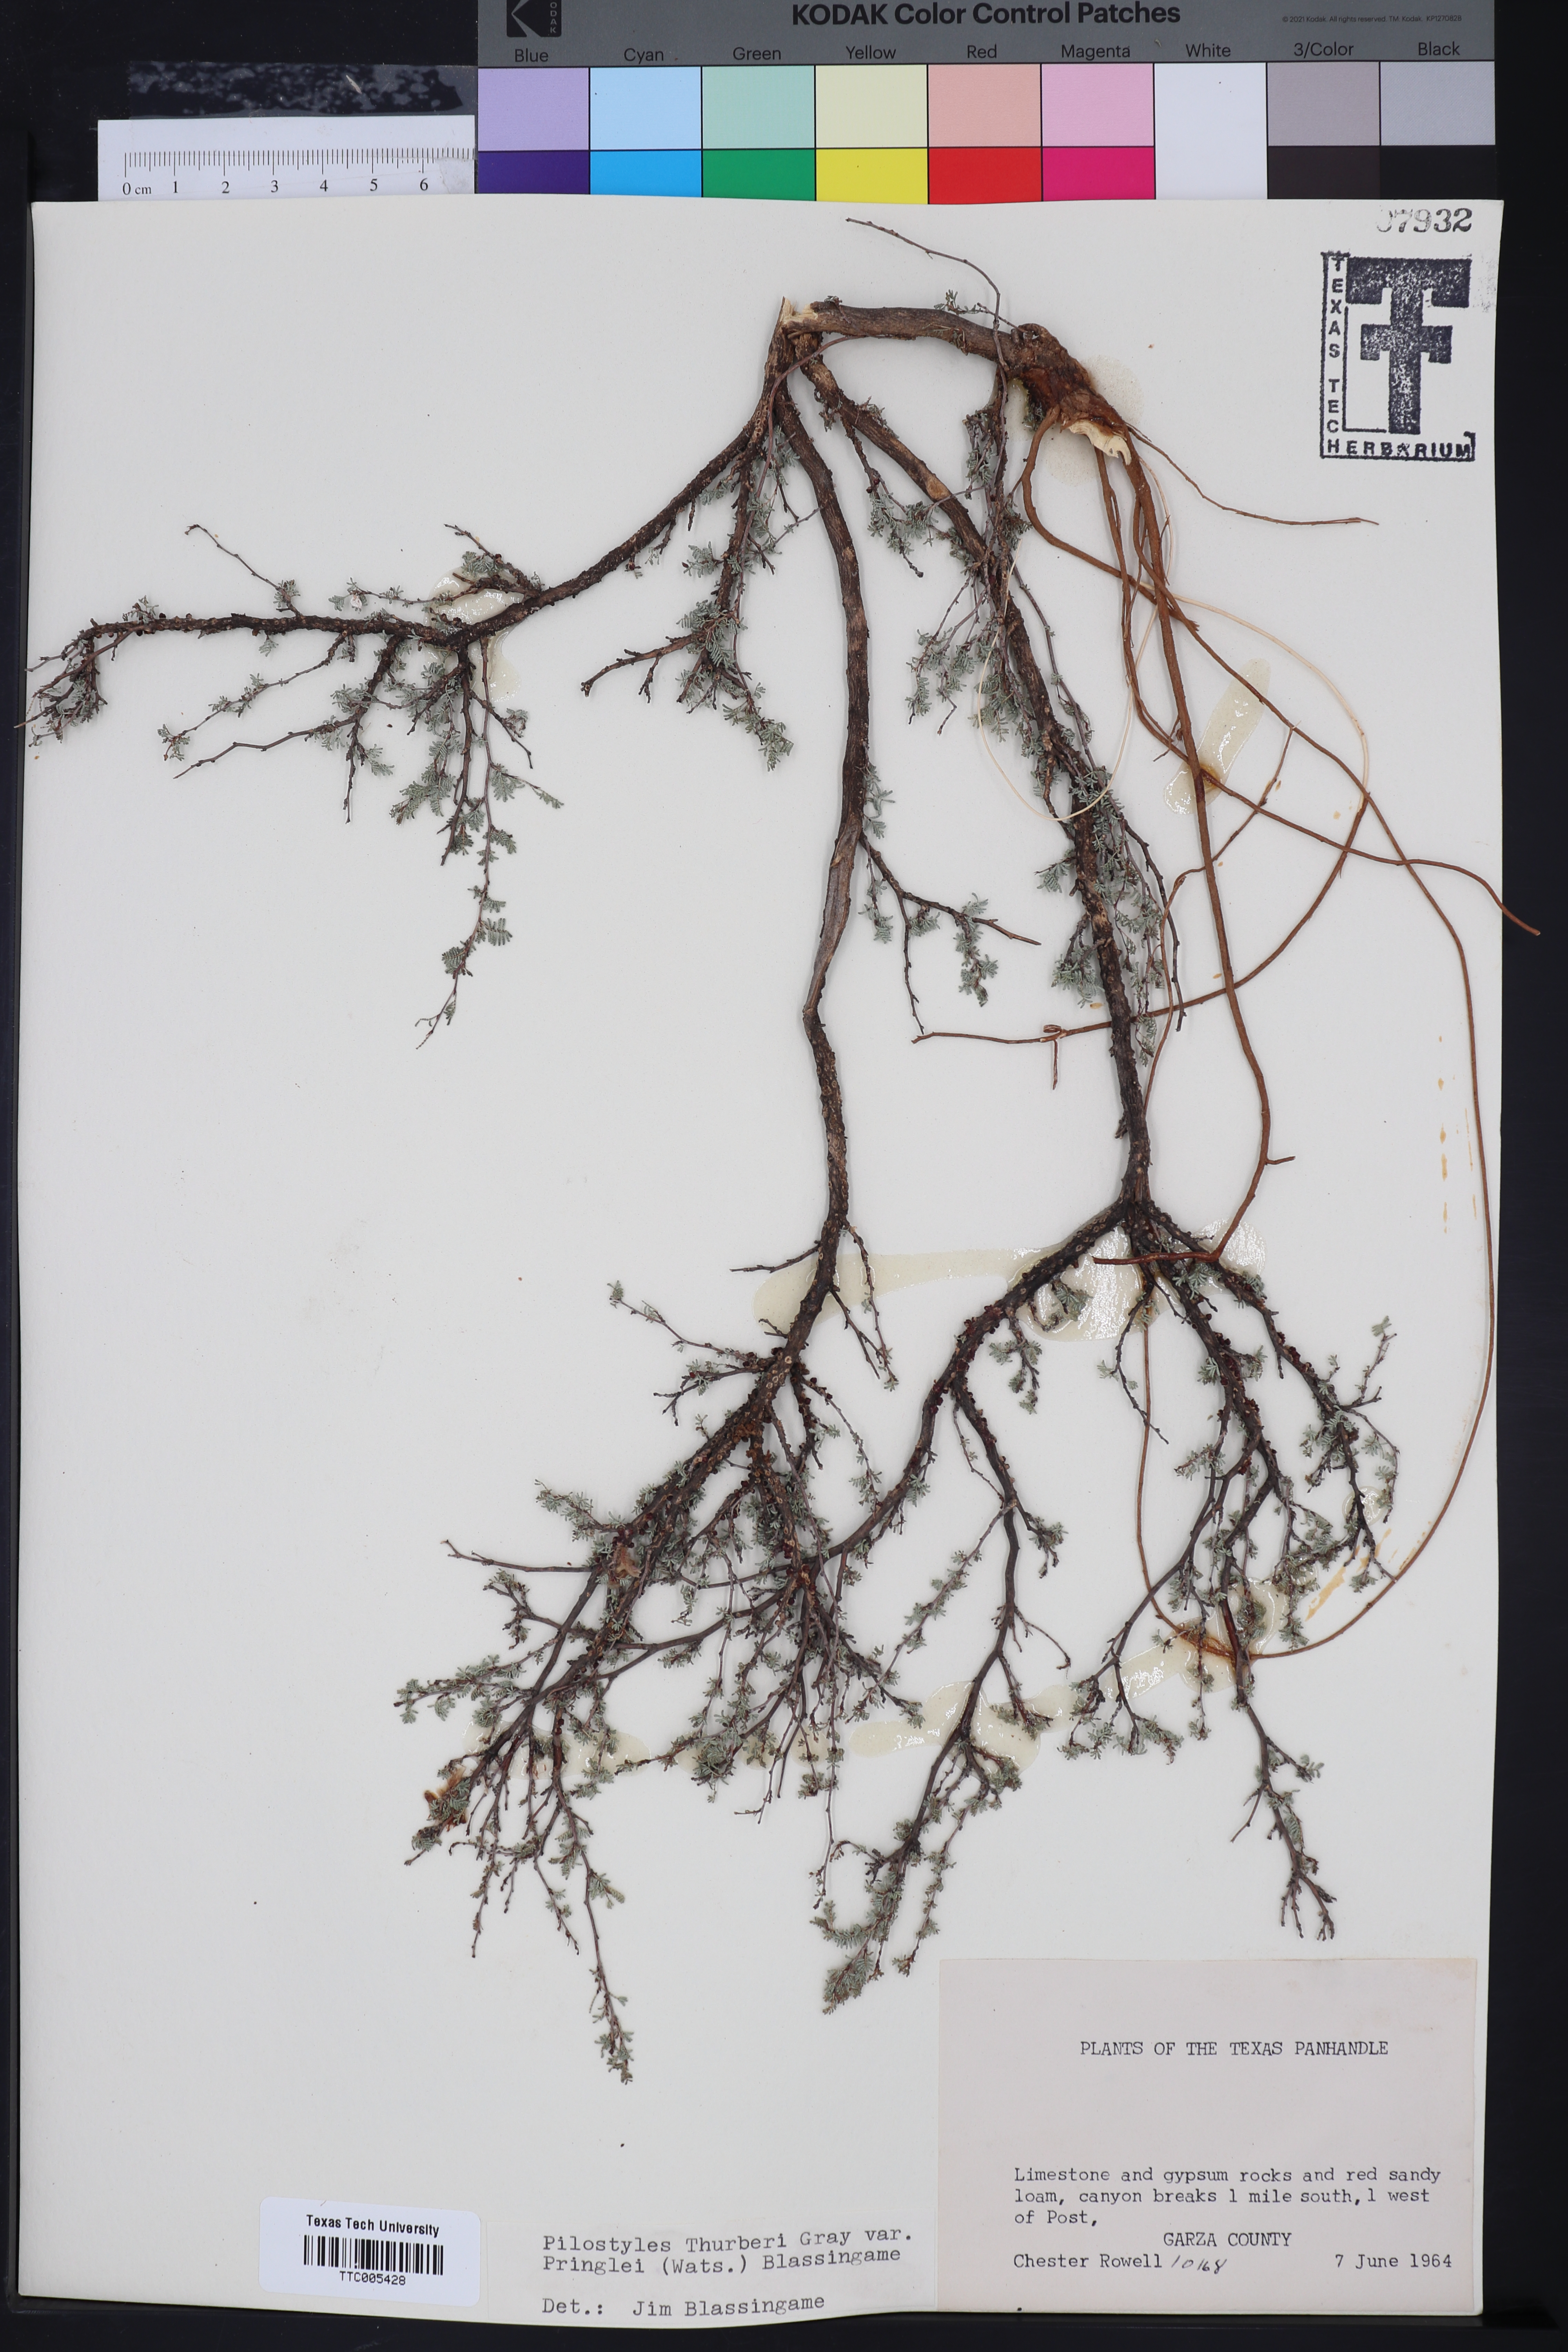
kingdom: Plantae
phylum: Tracheophyta
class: Magnoliopsida
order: Cucurbitales
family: Apodanthaceae
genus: Pilostyles
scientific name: Pilostyles thurberi
